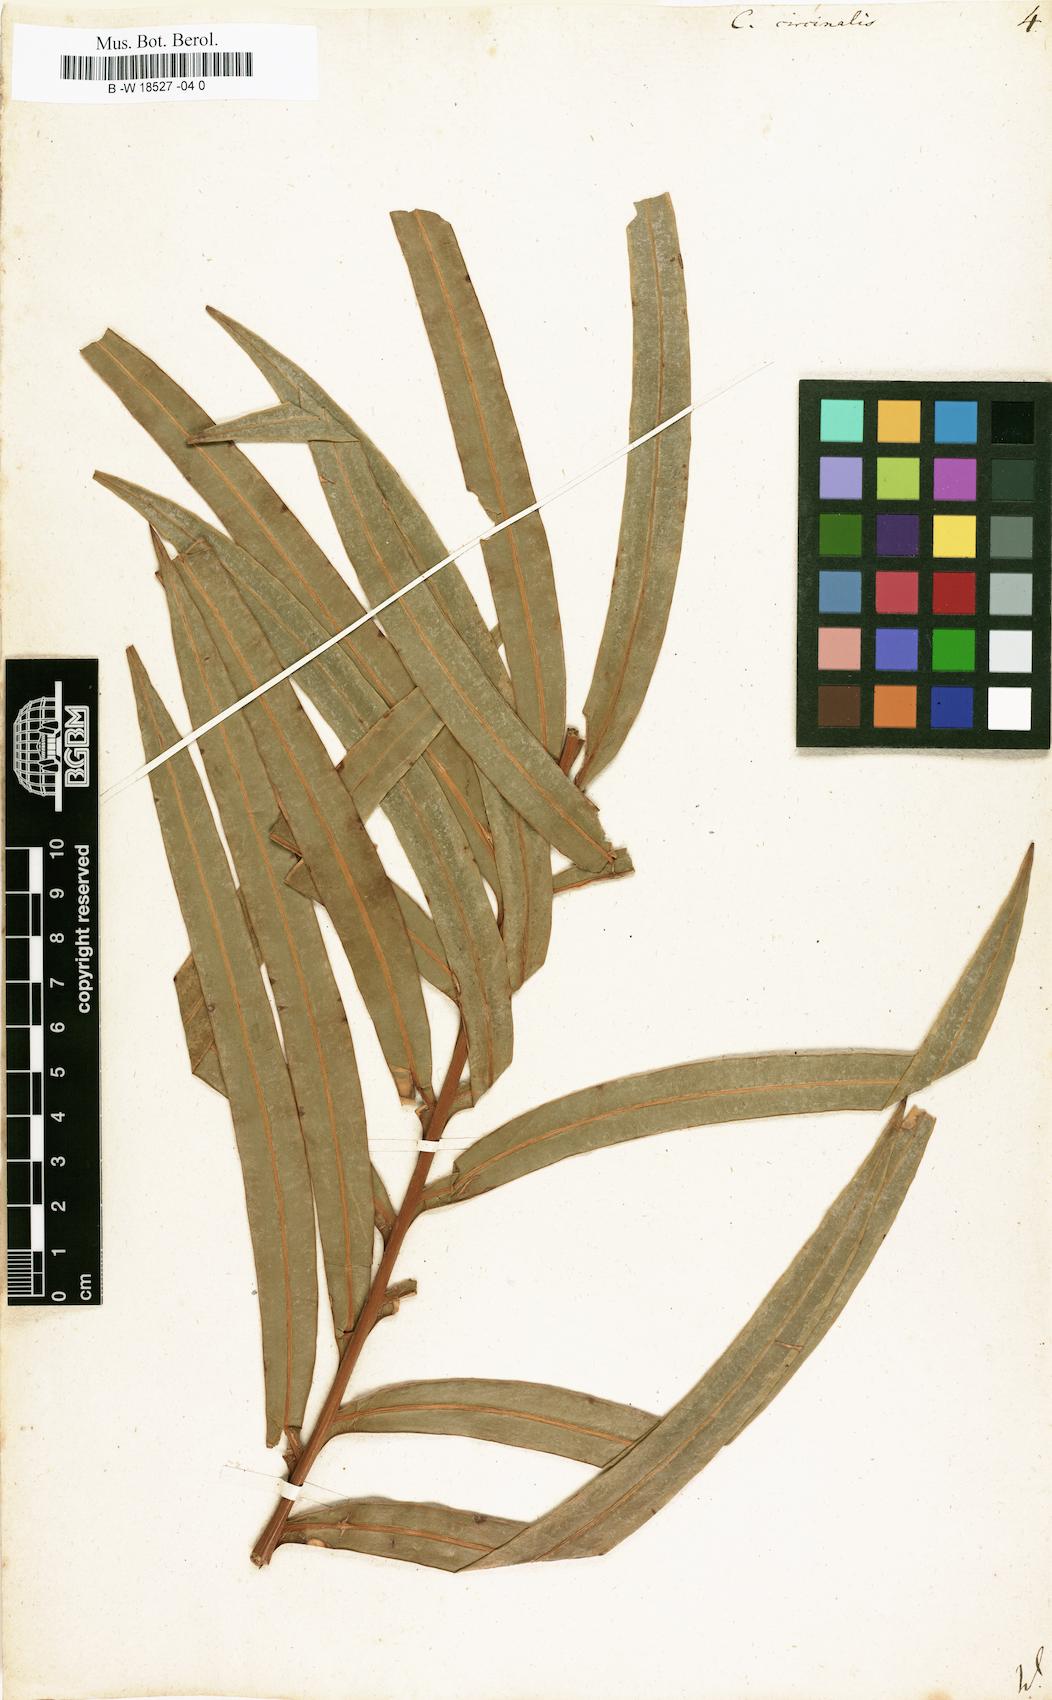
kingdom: Plantae
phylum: Tracheophyta
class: Cycadopsida
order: Cycadales
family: Cycadaceae
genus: Cycas
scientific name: Cycas circinalis
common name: Queen sago
